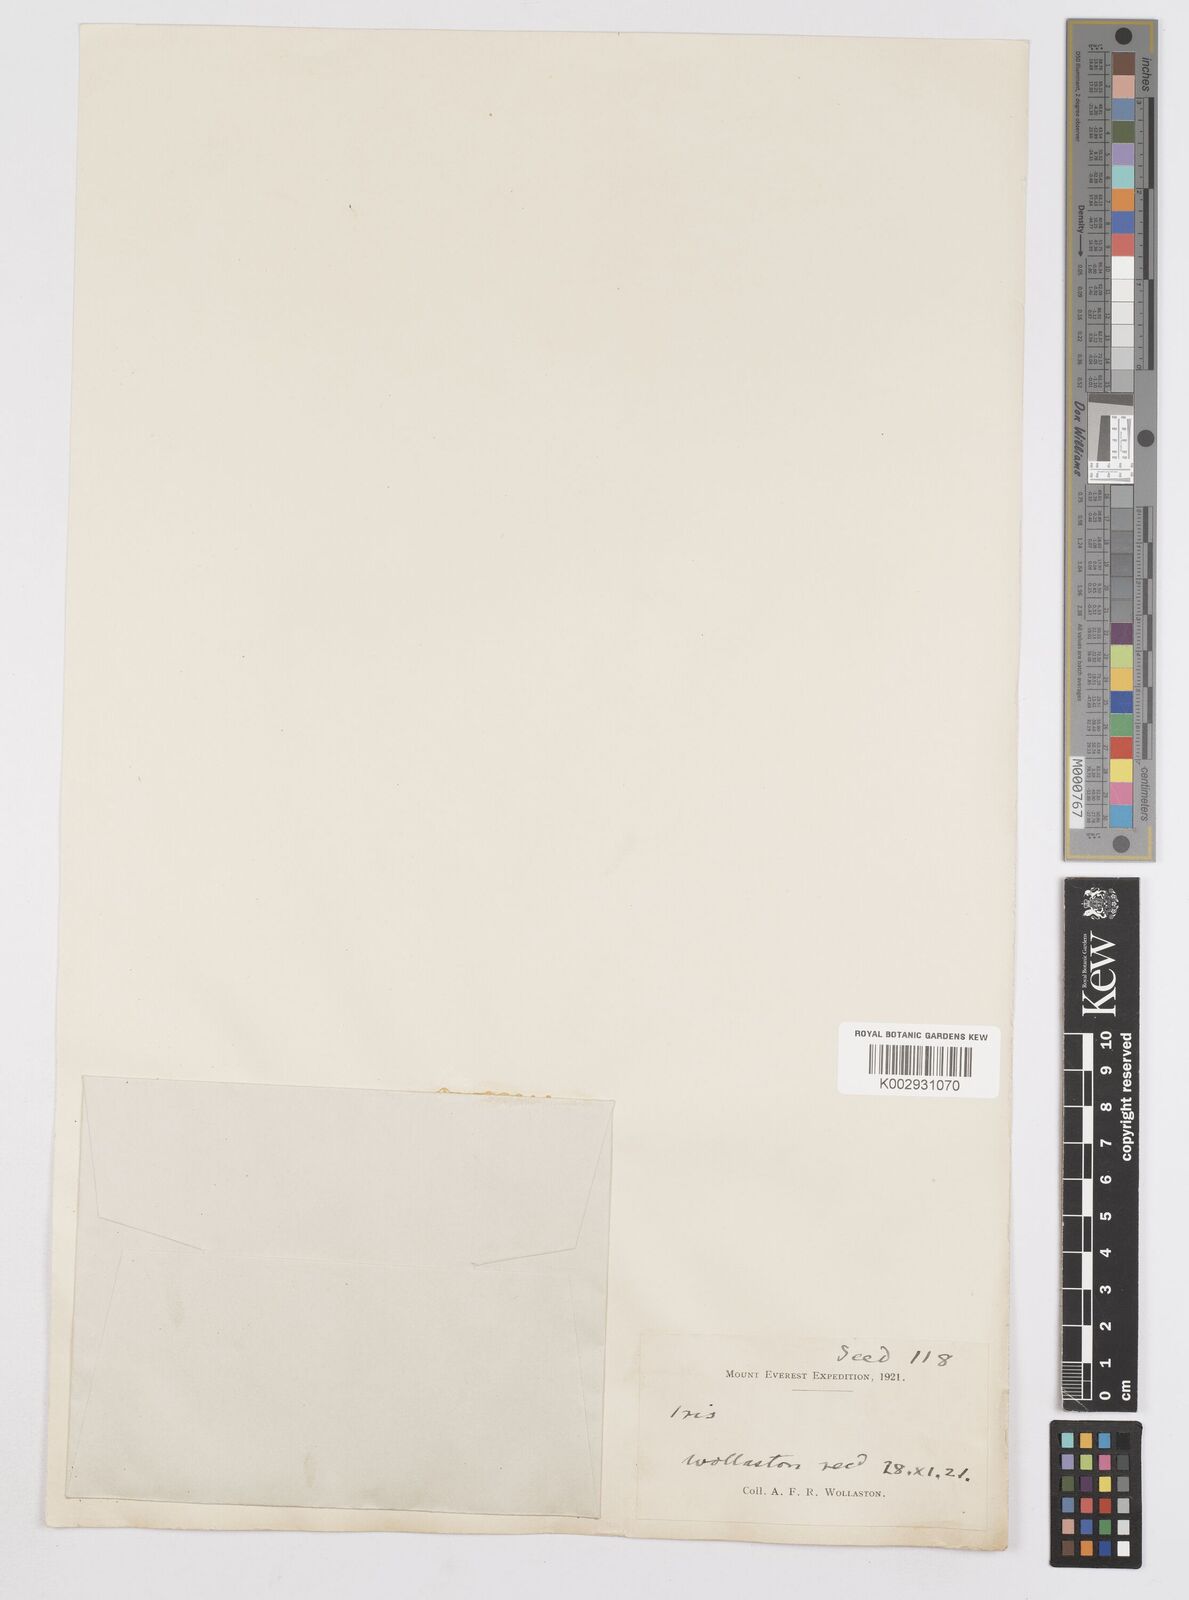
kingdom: Plantae
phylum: Tracheophyta
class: Liliopsida
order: Asparagales
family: Iridaceae
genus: Iris
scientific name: Iris tenuifolia
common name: Slender-leaf iris
